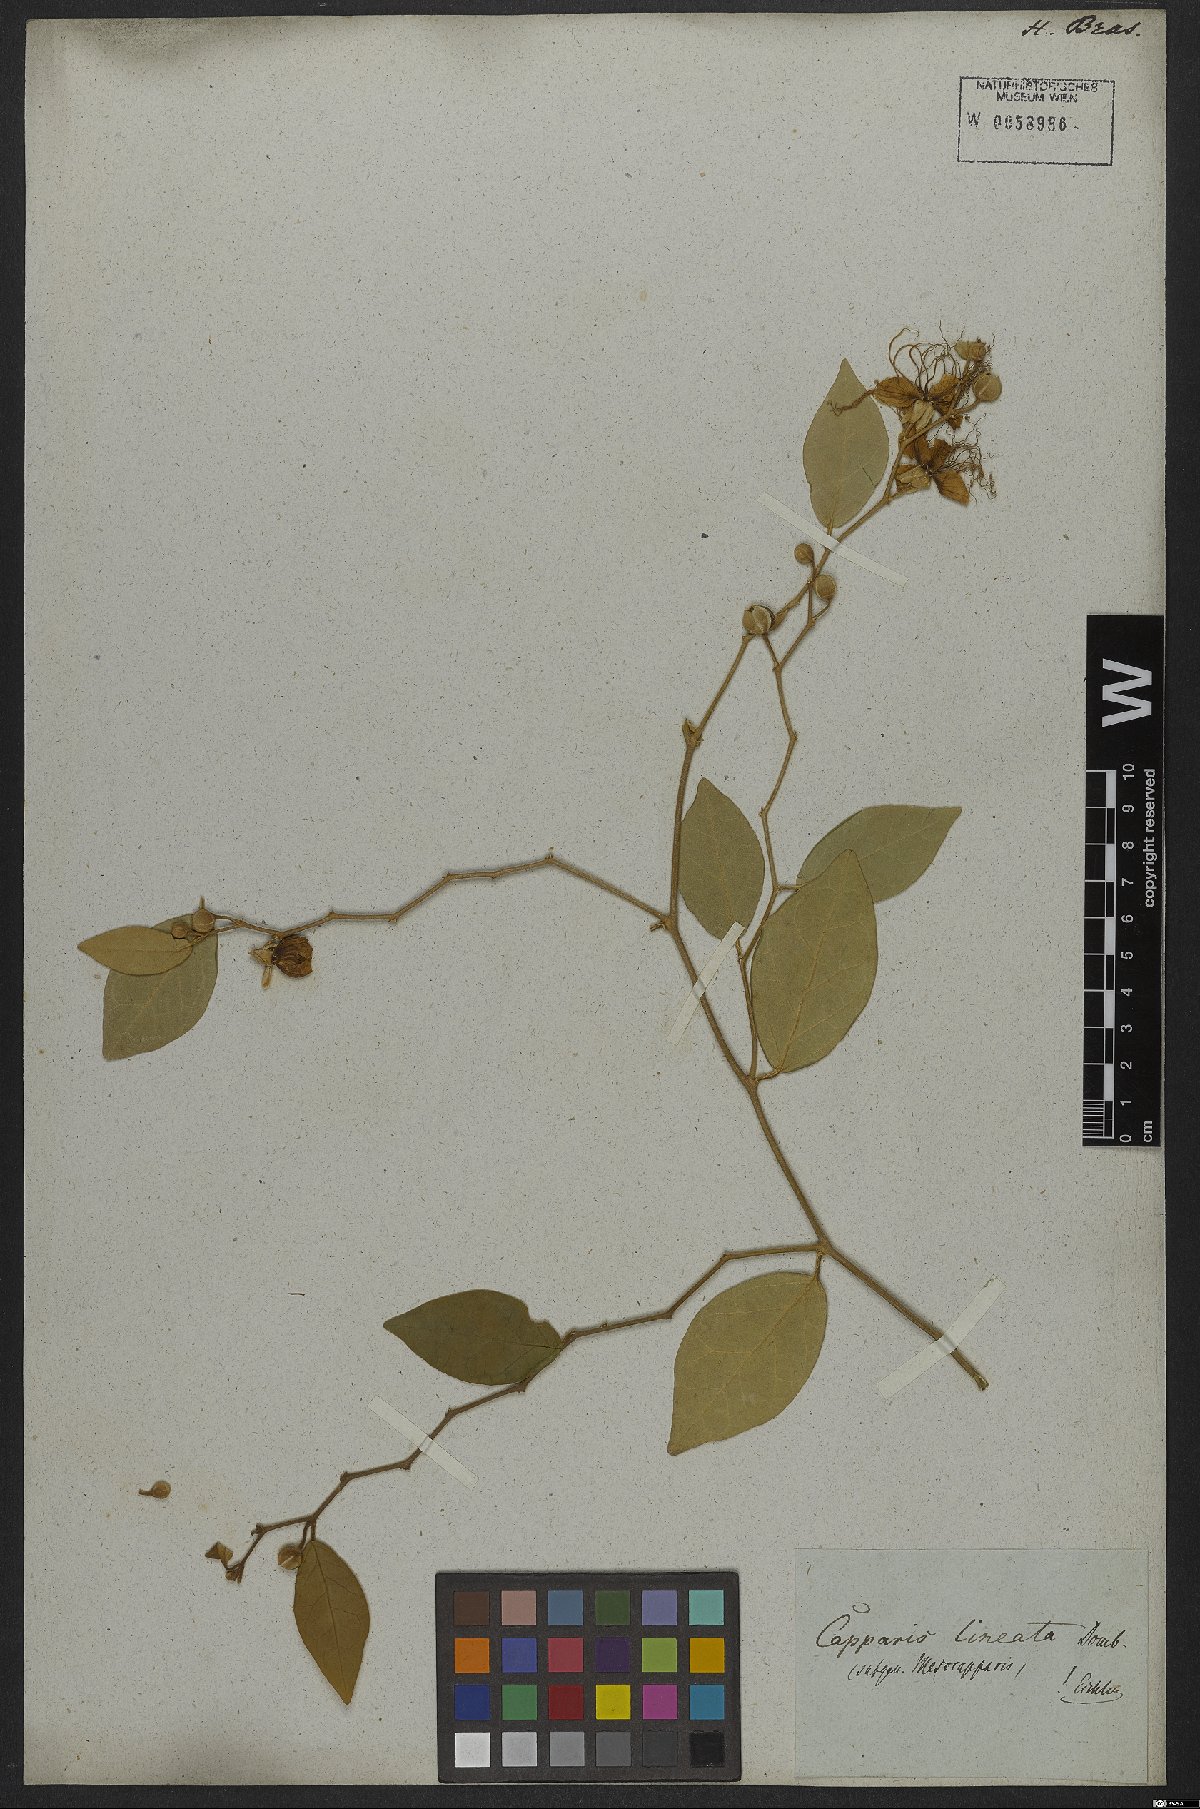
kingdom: Plantae
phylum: Tracheophyta
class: Magnoliopsida
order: Brassicales
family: Capparaceae
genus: Mesocapparis
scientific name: Mesocapparis lineata
